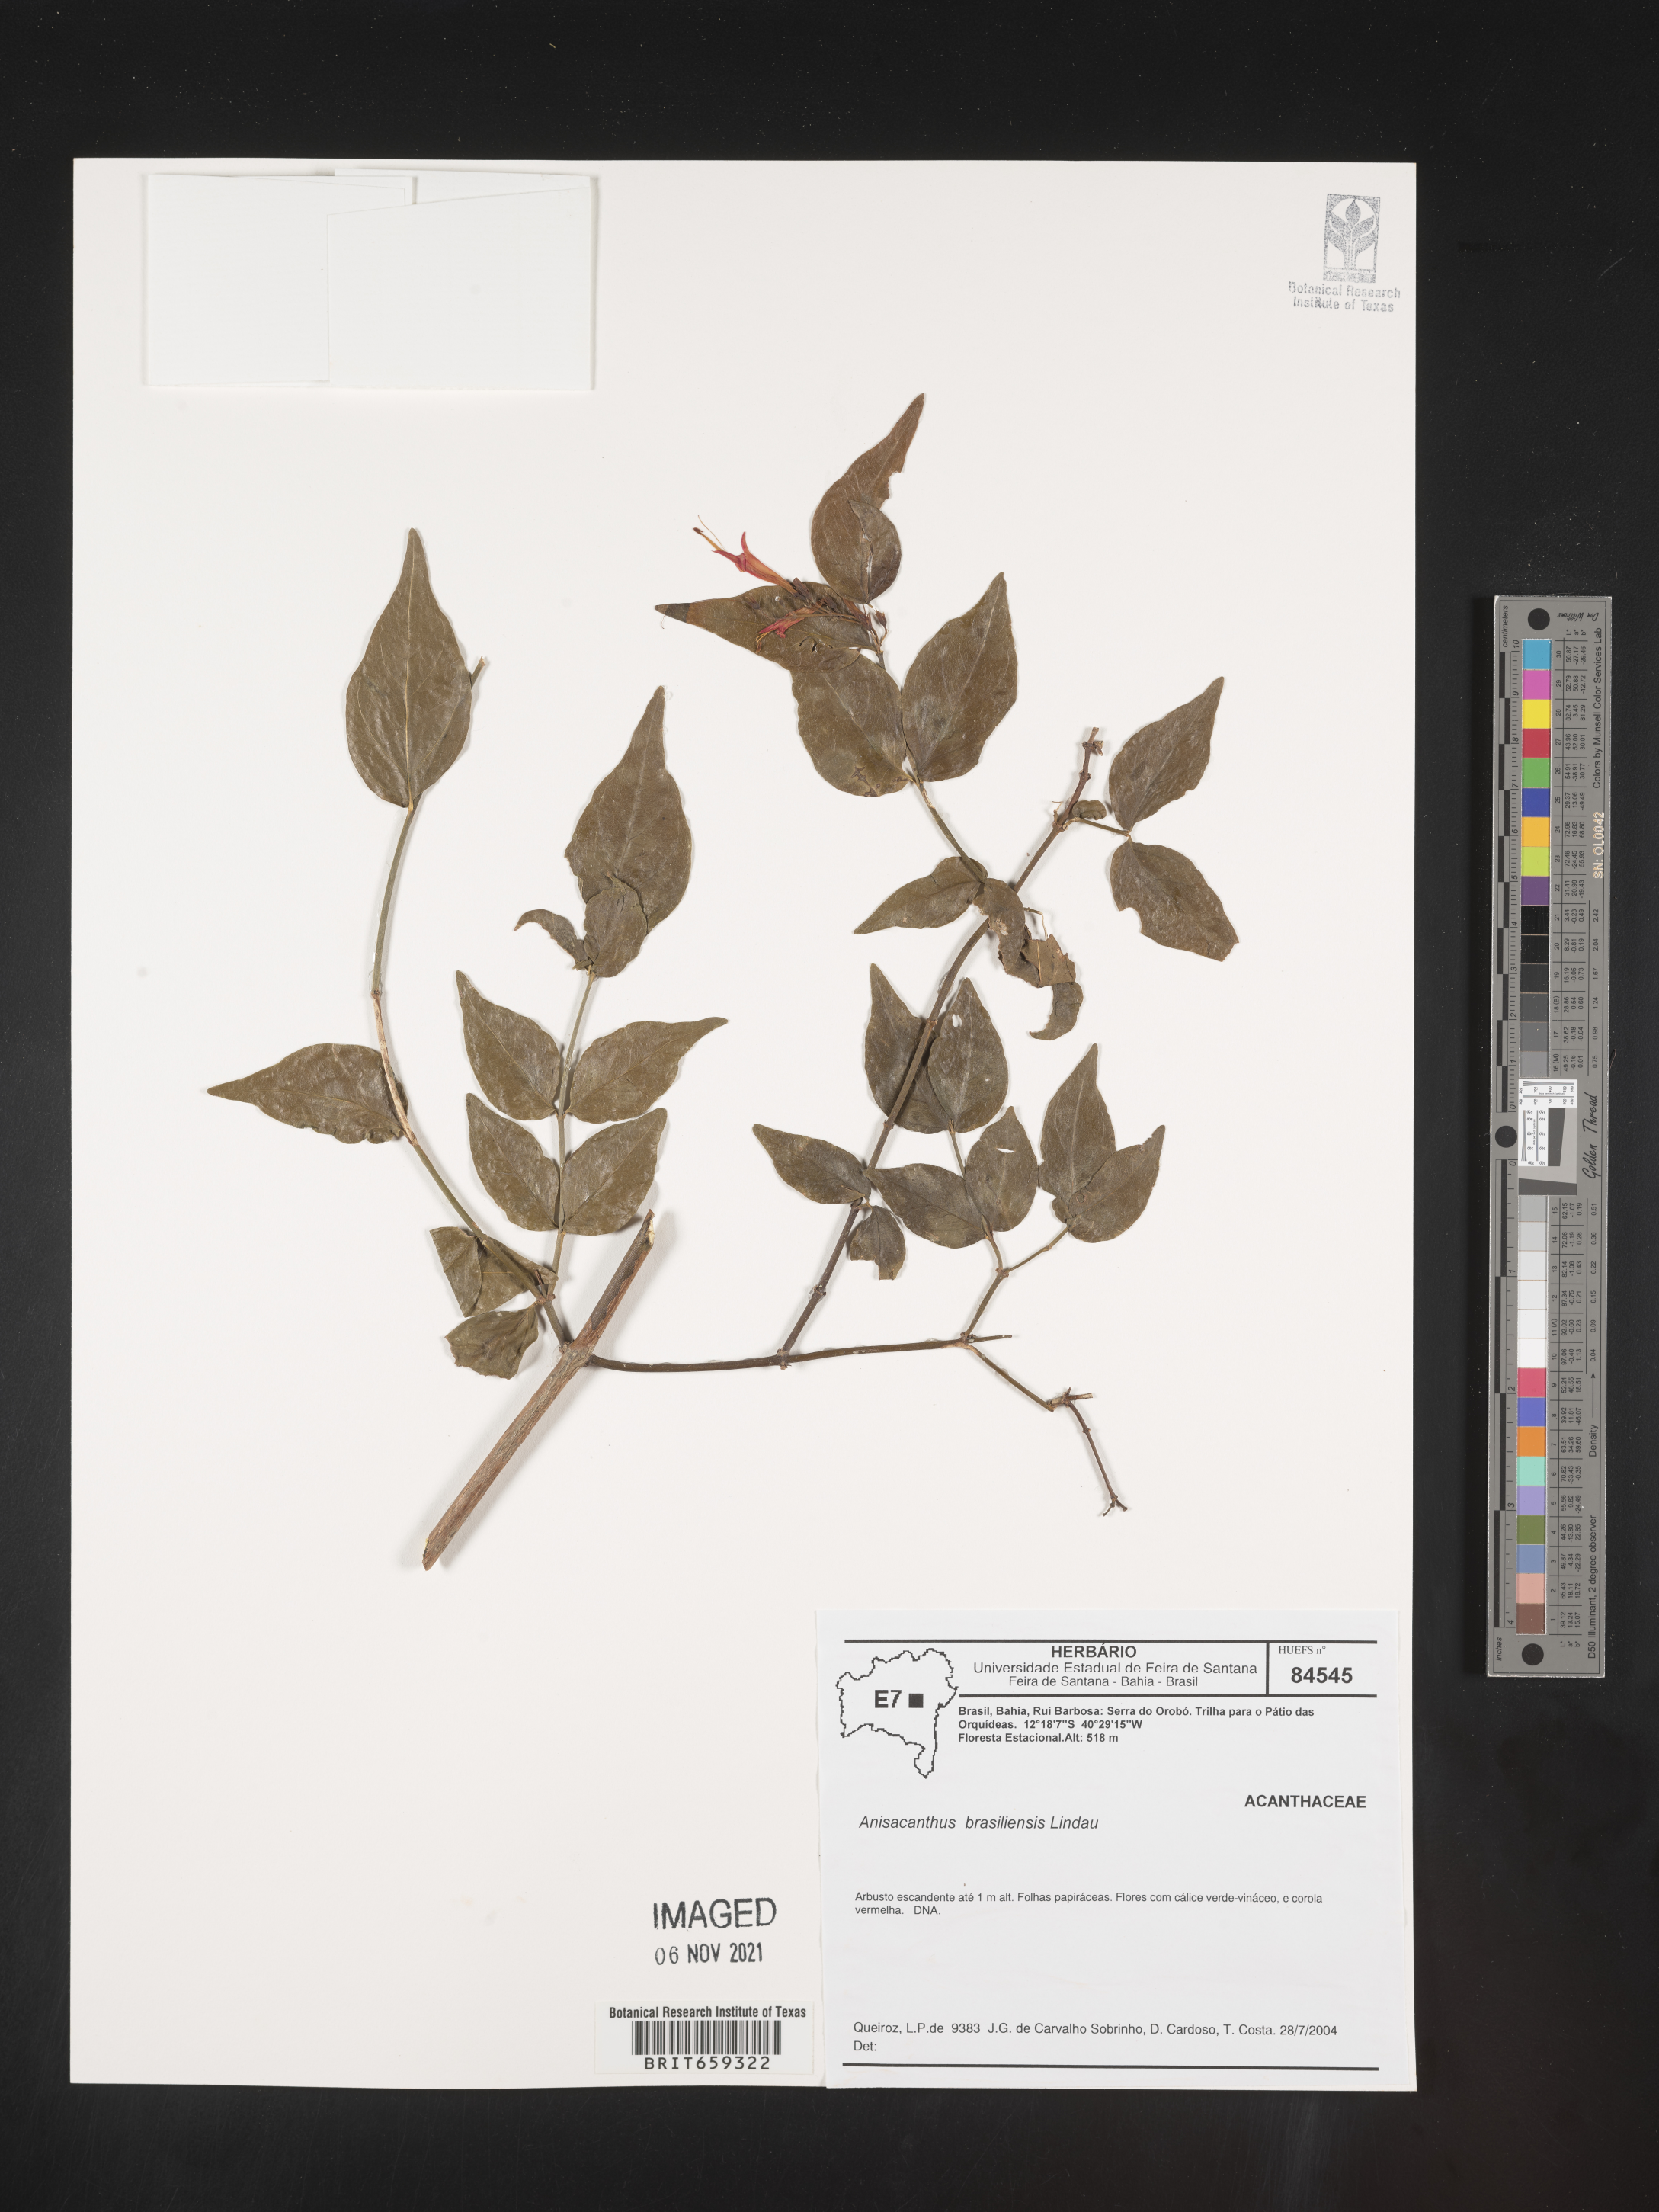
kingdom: Plantae
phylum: Tracheophyta
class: Magnoliopsida
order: Lamiales
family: Acanthaceae
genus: Anisacanthus
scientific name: Anisacanthus
